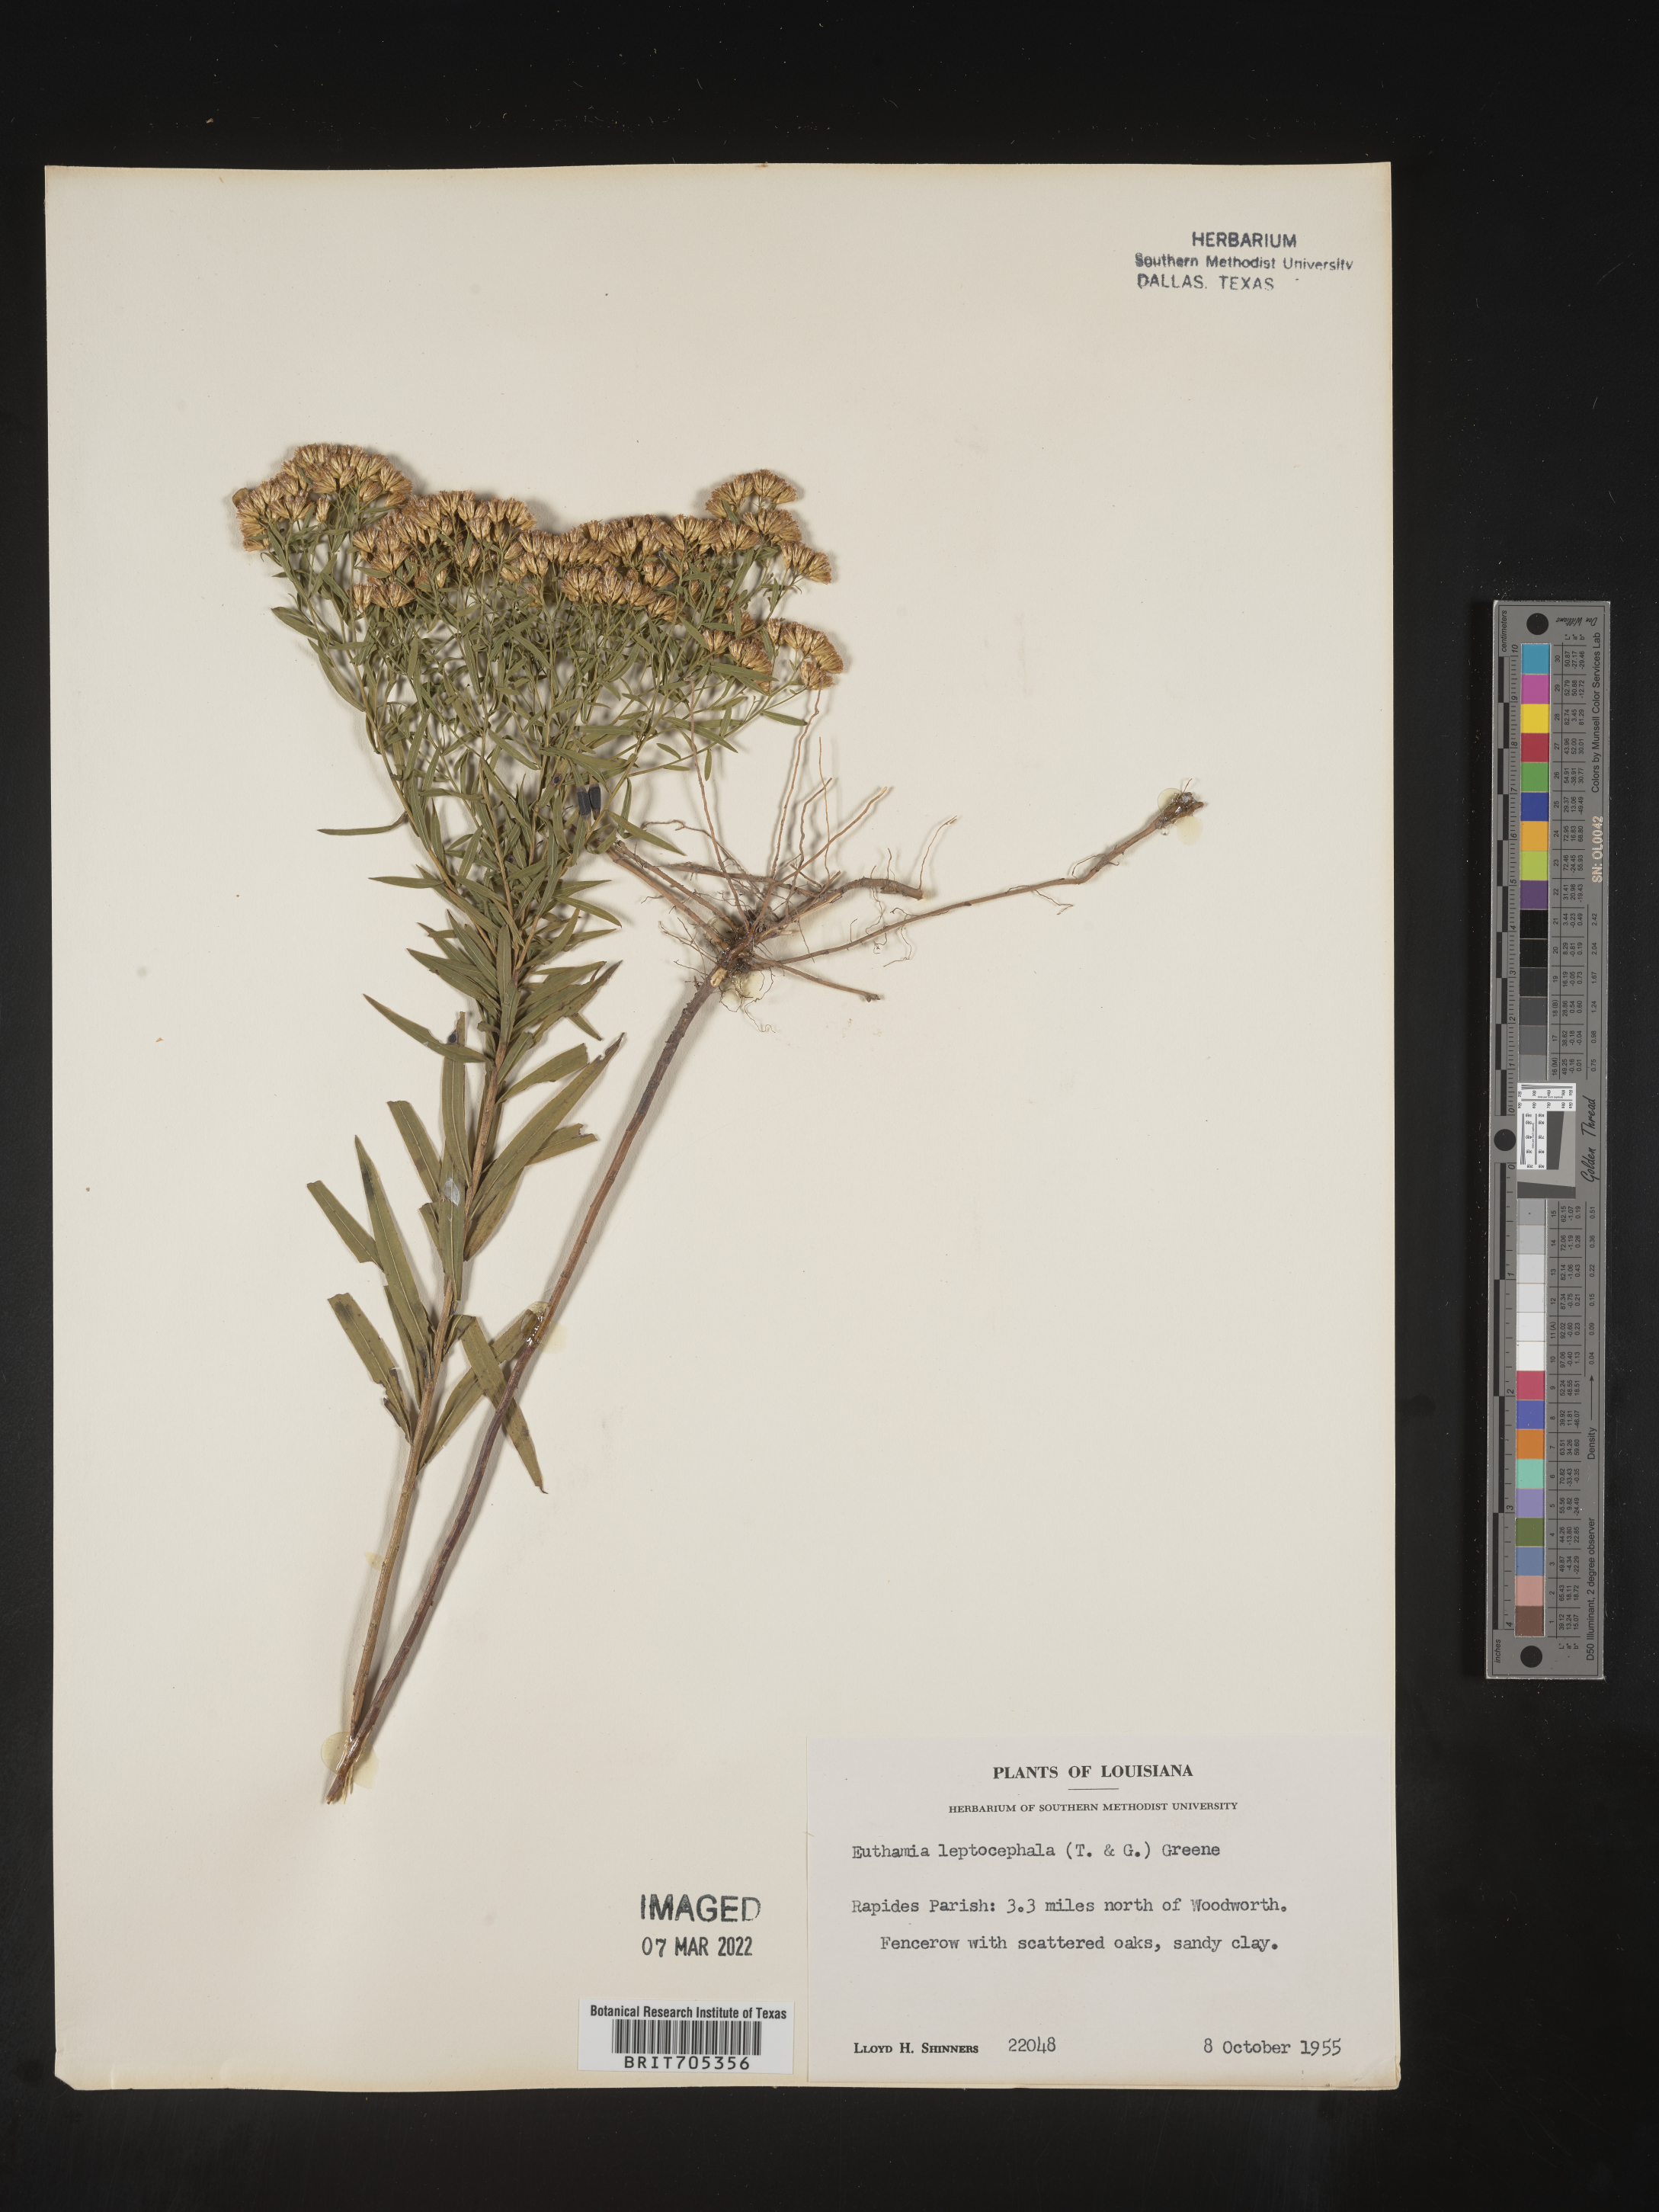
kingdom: Plantae
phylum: Tracheophyta
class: Magnoliopsida
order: Asterales
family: Asteraceae
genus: Euthamia
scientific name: Euthamia leptocephala
